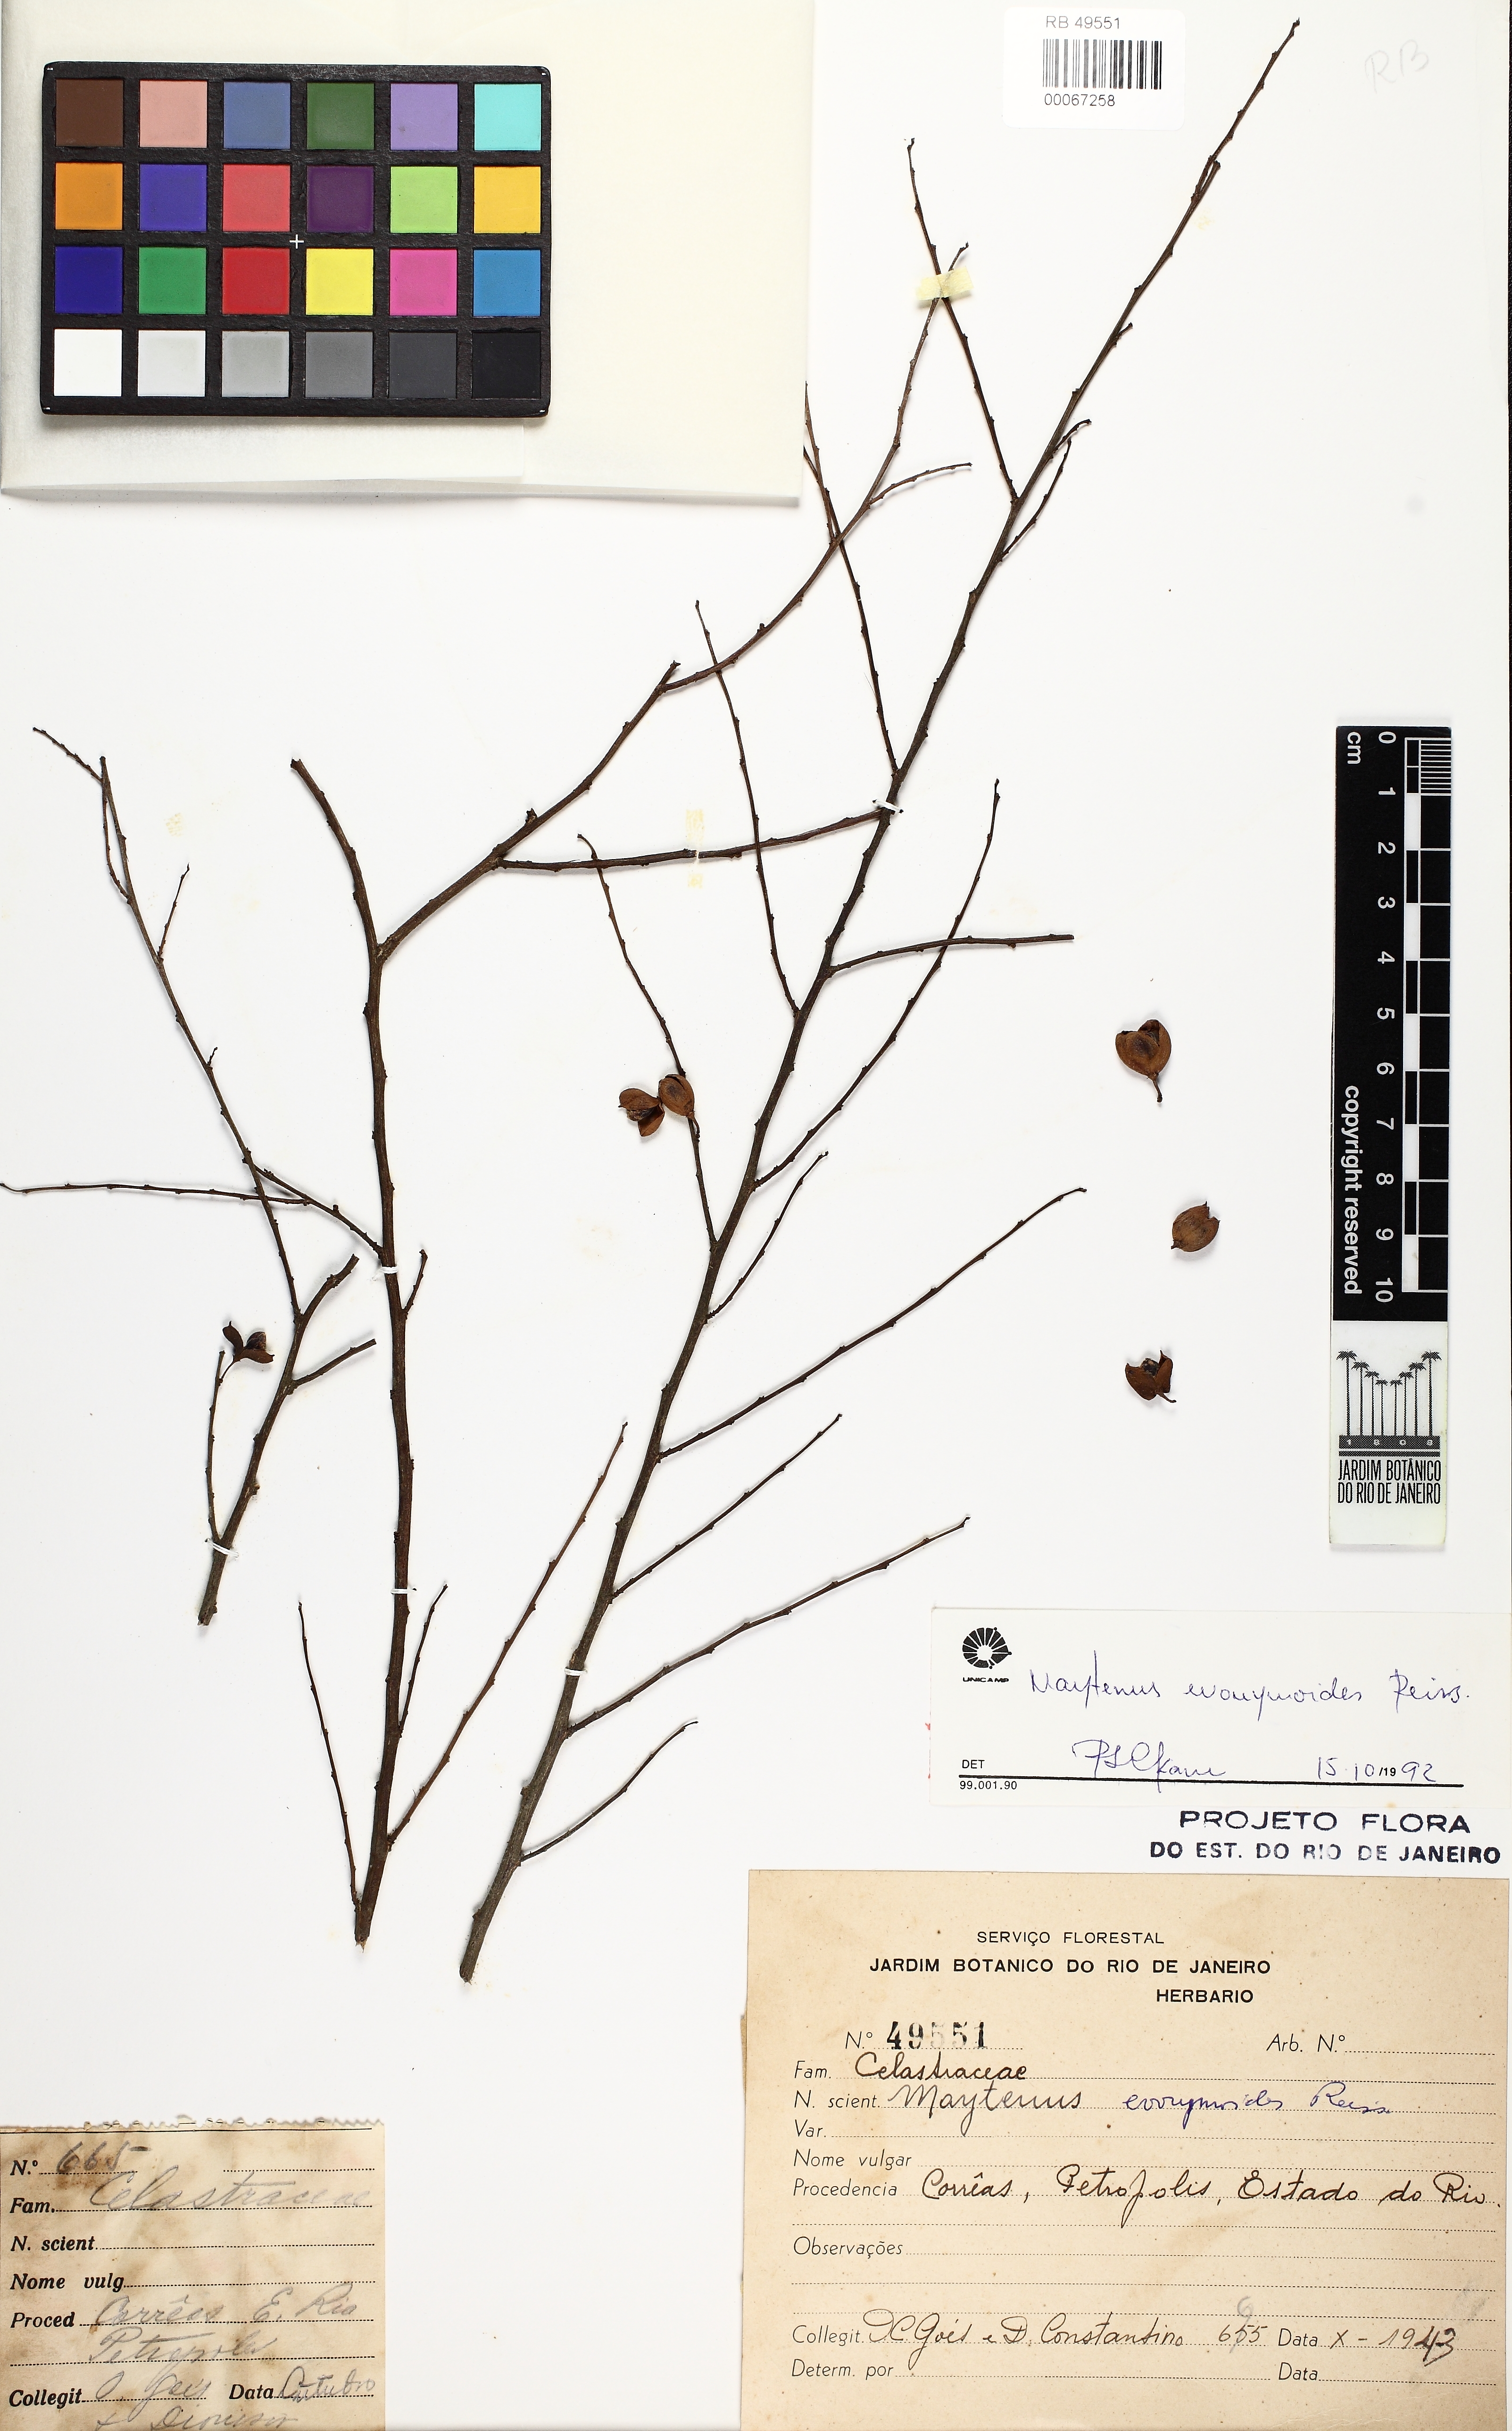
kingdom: Plantae
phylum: Tracheophyta
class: Magnoliopsida
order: Celastrales
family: Celastraceae
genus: Monteverdia
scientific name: Monteverdia evonymoides
